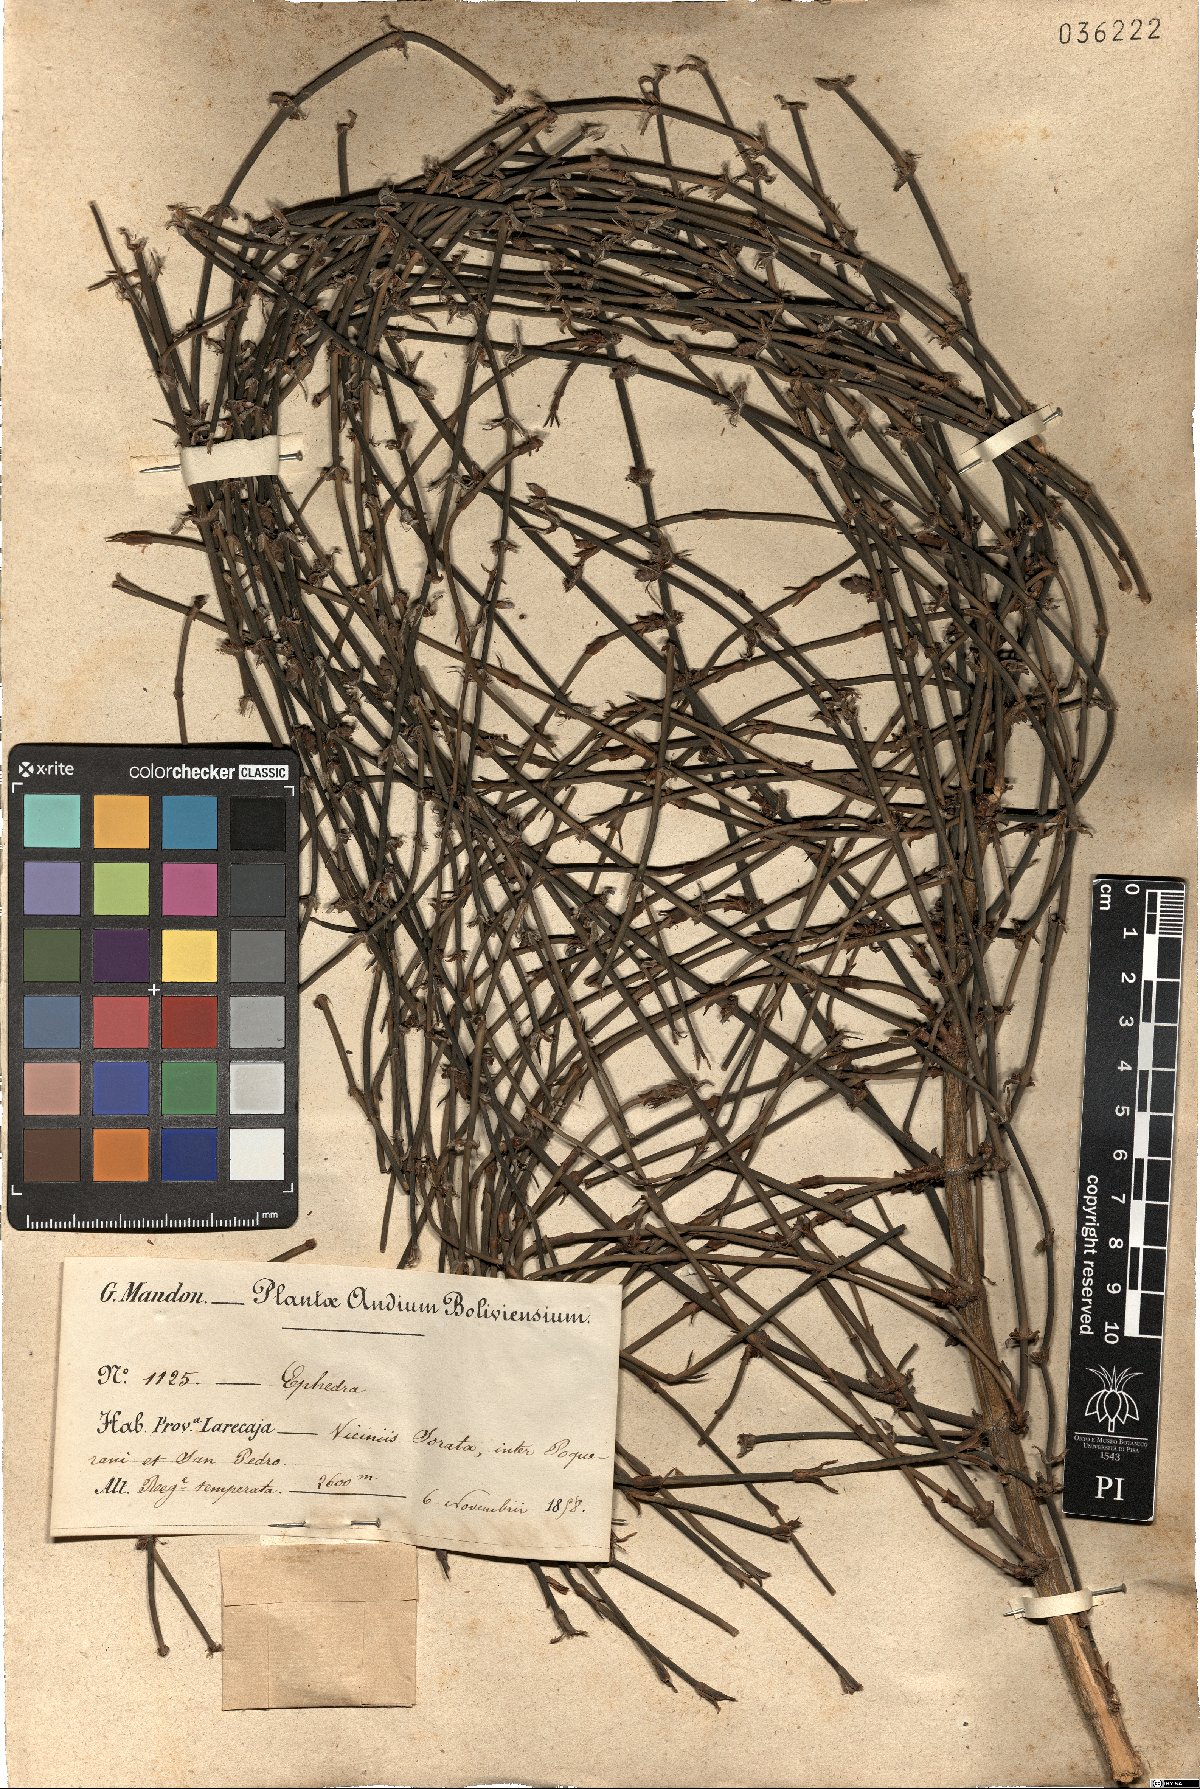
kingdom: Plantae
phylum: Tracheophyta
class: Gnetopsida
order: Ephedrales
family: Ephedraceae
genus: Ephedra
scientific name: Ephedra
